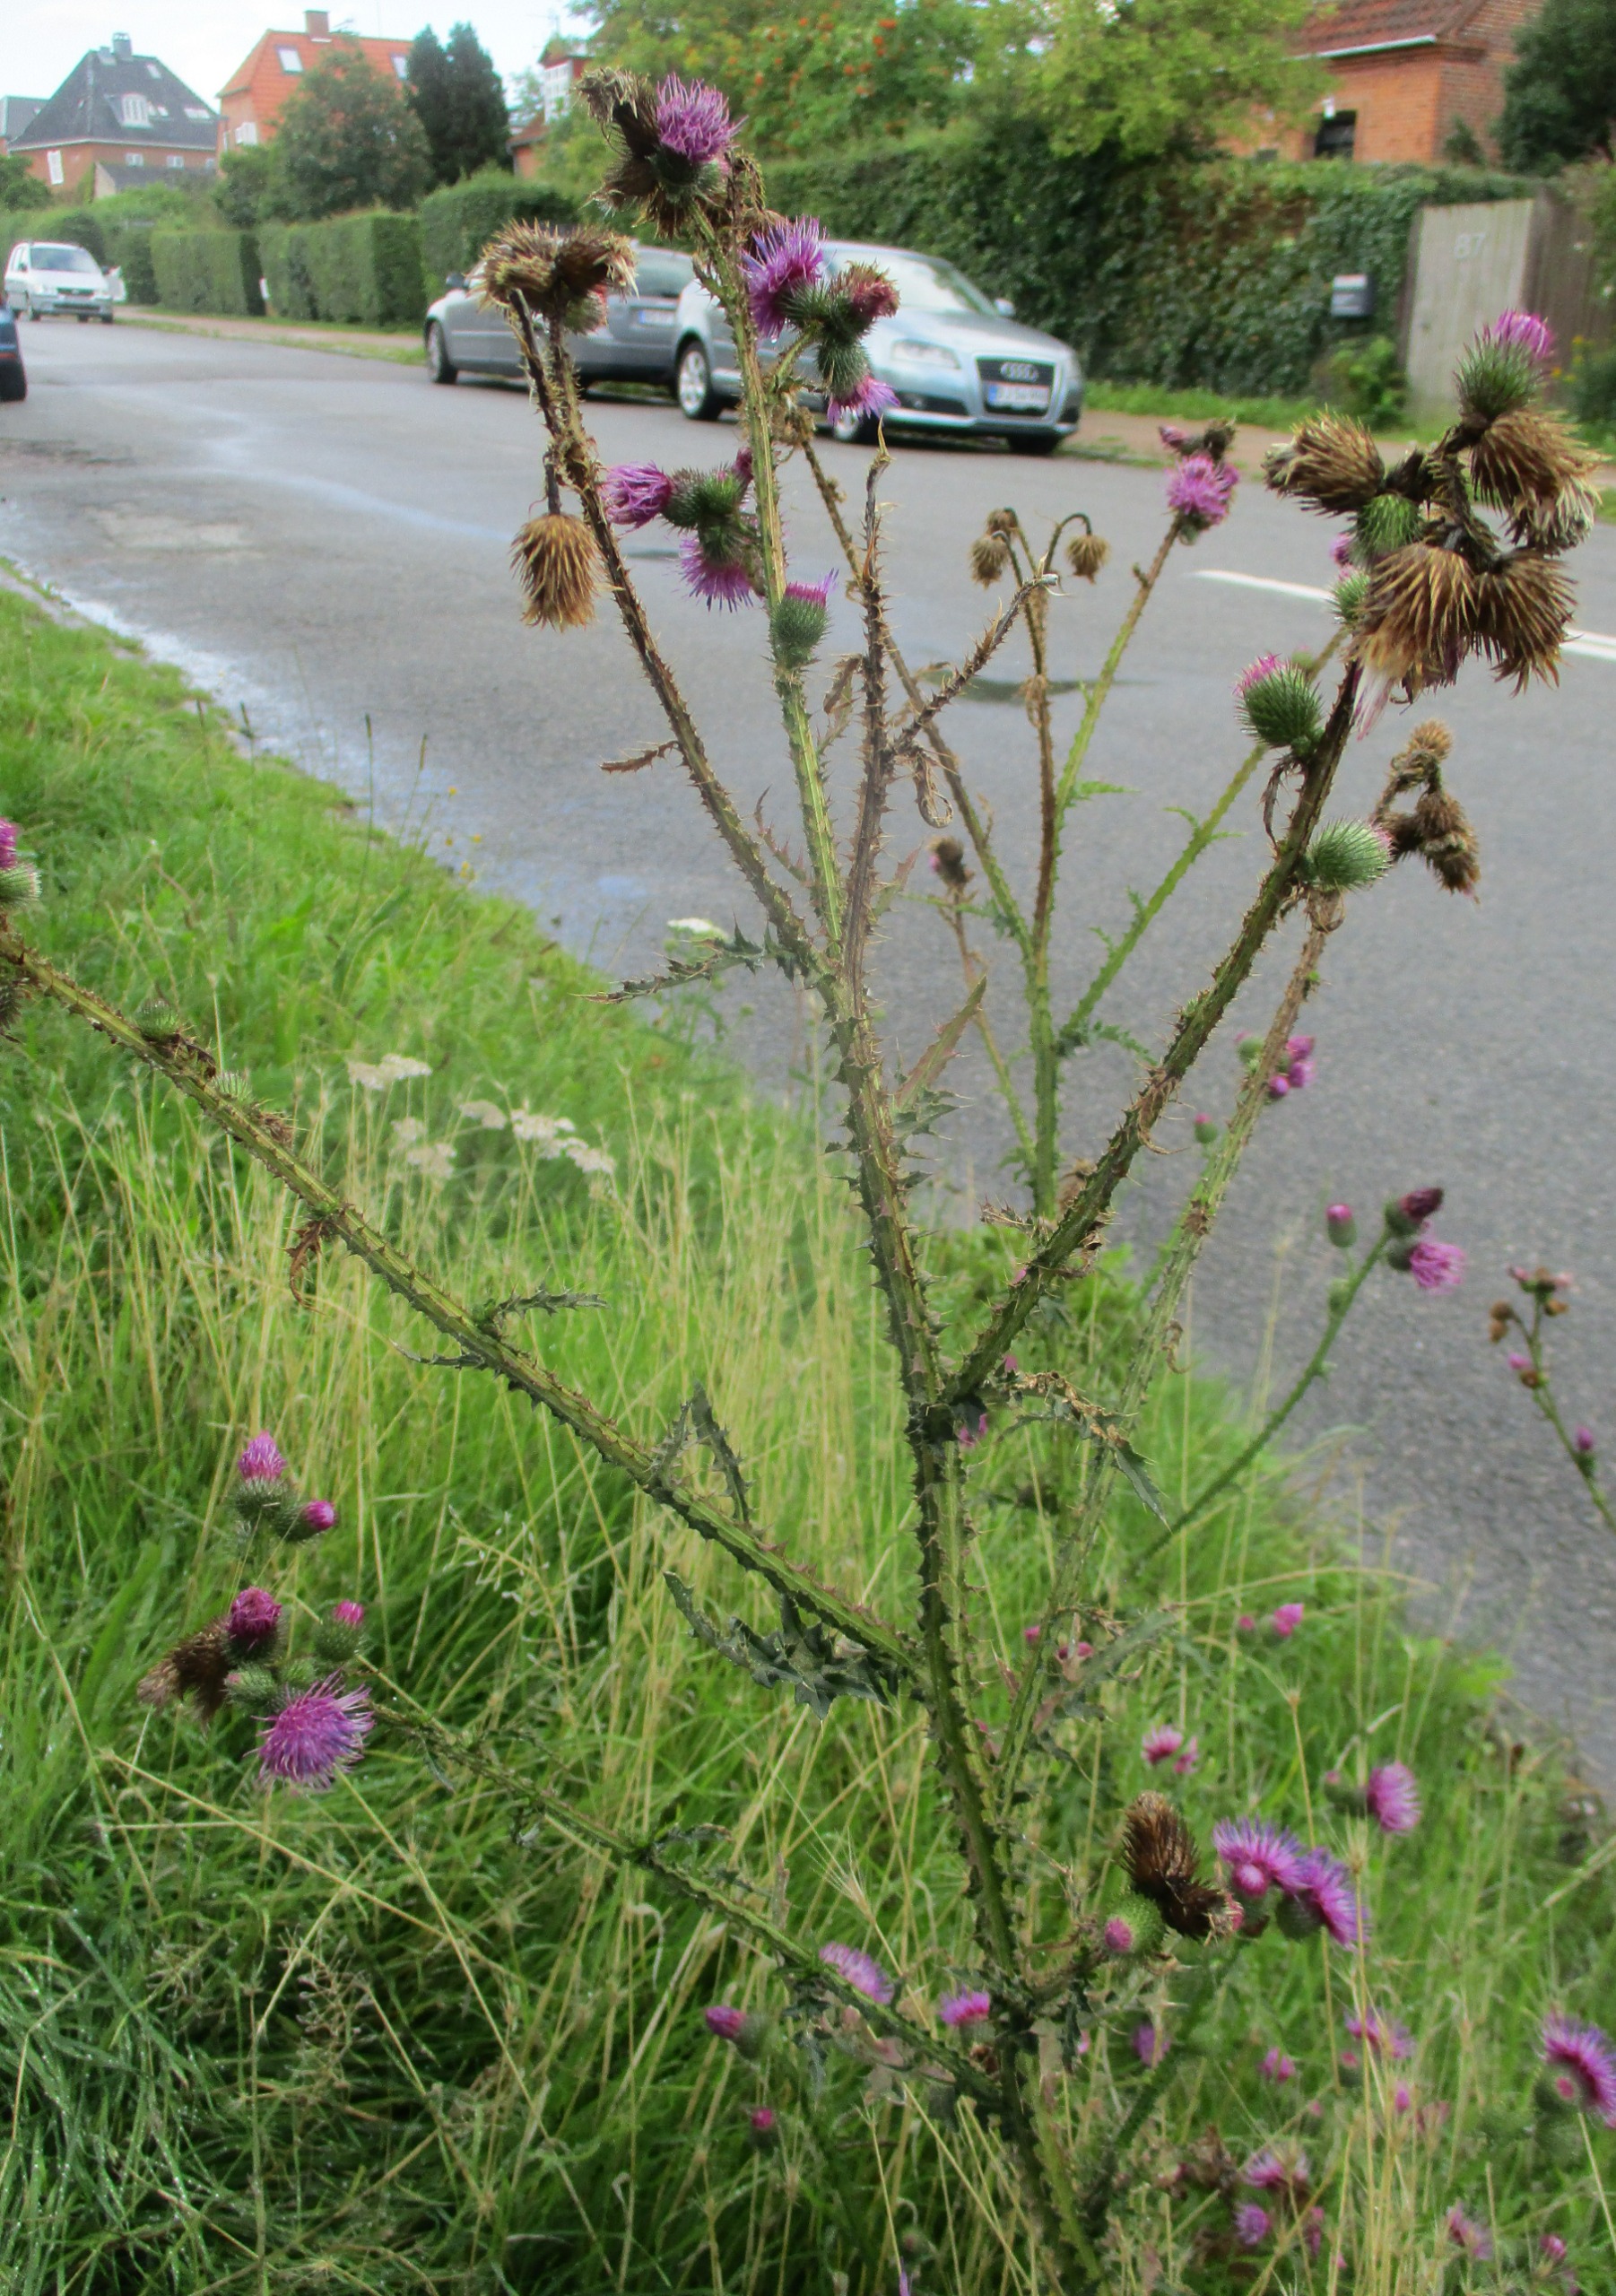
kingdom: Plantae
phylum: Tracheophyta
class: Magnoliopsida
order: Asterales
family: Asteraceae
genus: Carduus
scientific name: Carduus crispus
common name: Kruset tidsel
